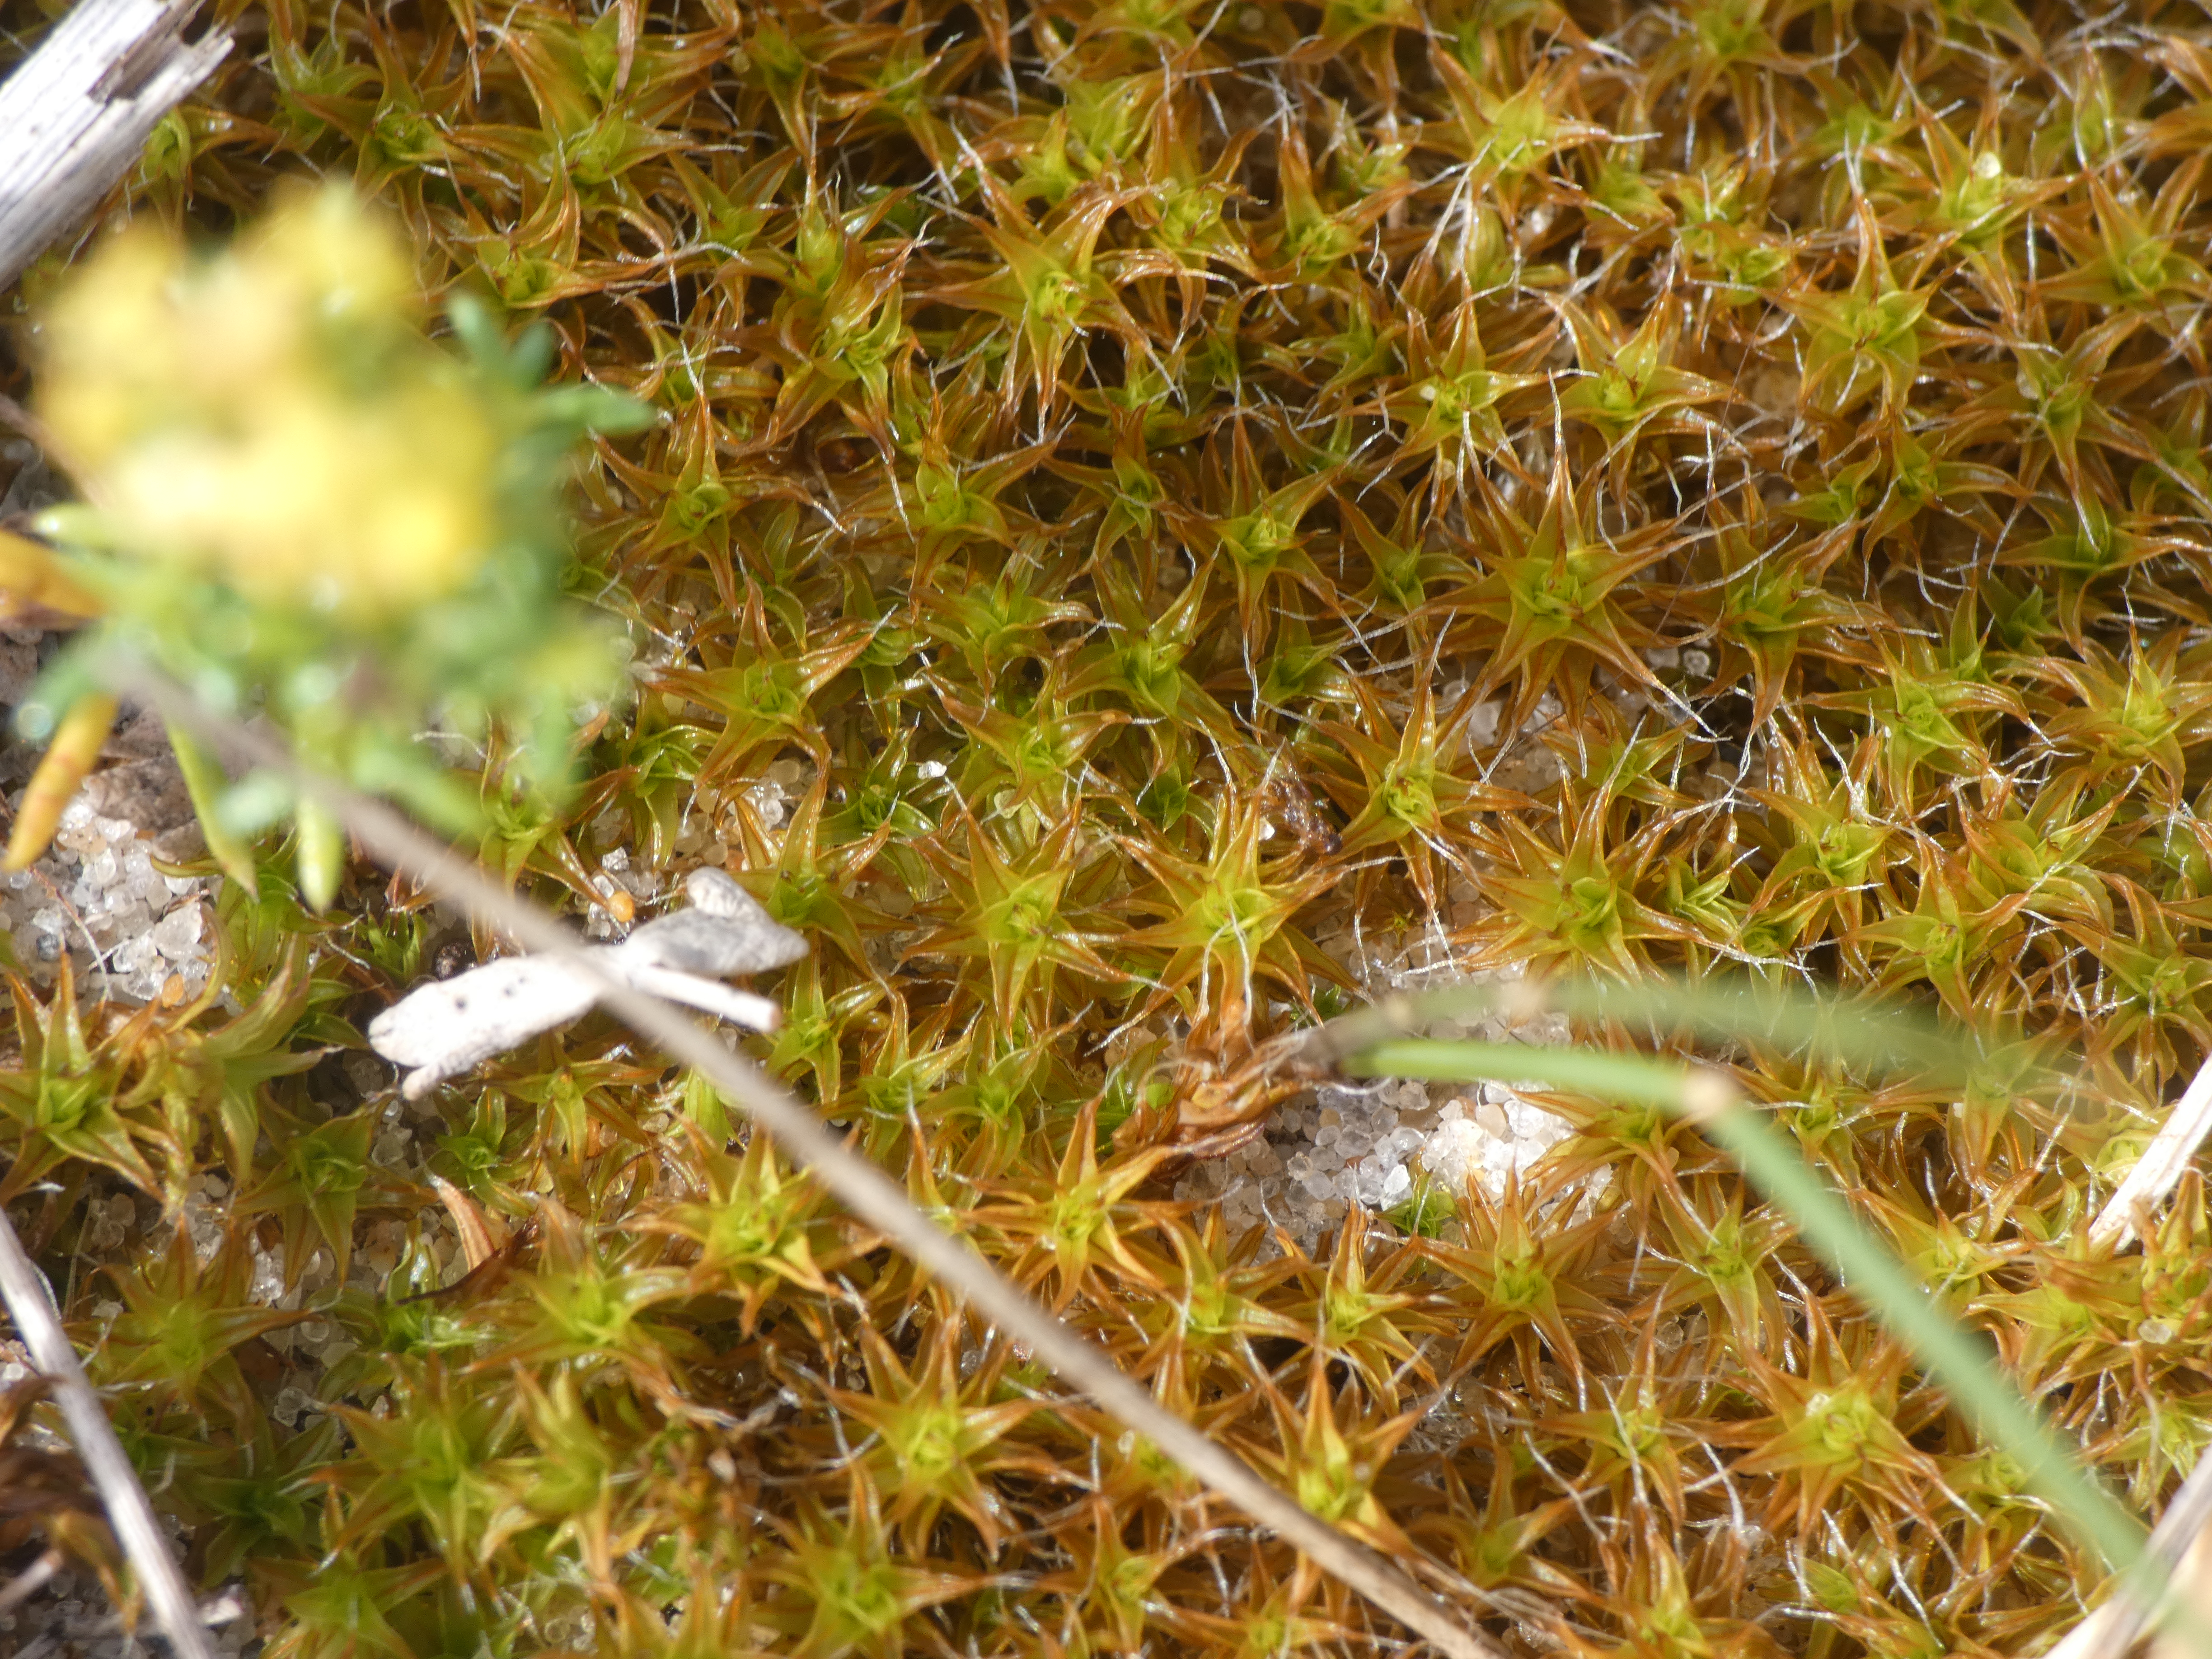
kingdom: Plantae
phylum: Bryophyta
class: Bryopsida
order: Pottiales
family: Pottiaceae
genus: Syntrichia
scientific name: Syntrichia ruralis
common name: Spidsbladet hårstjerne
